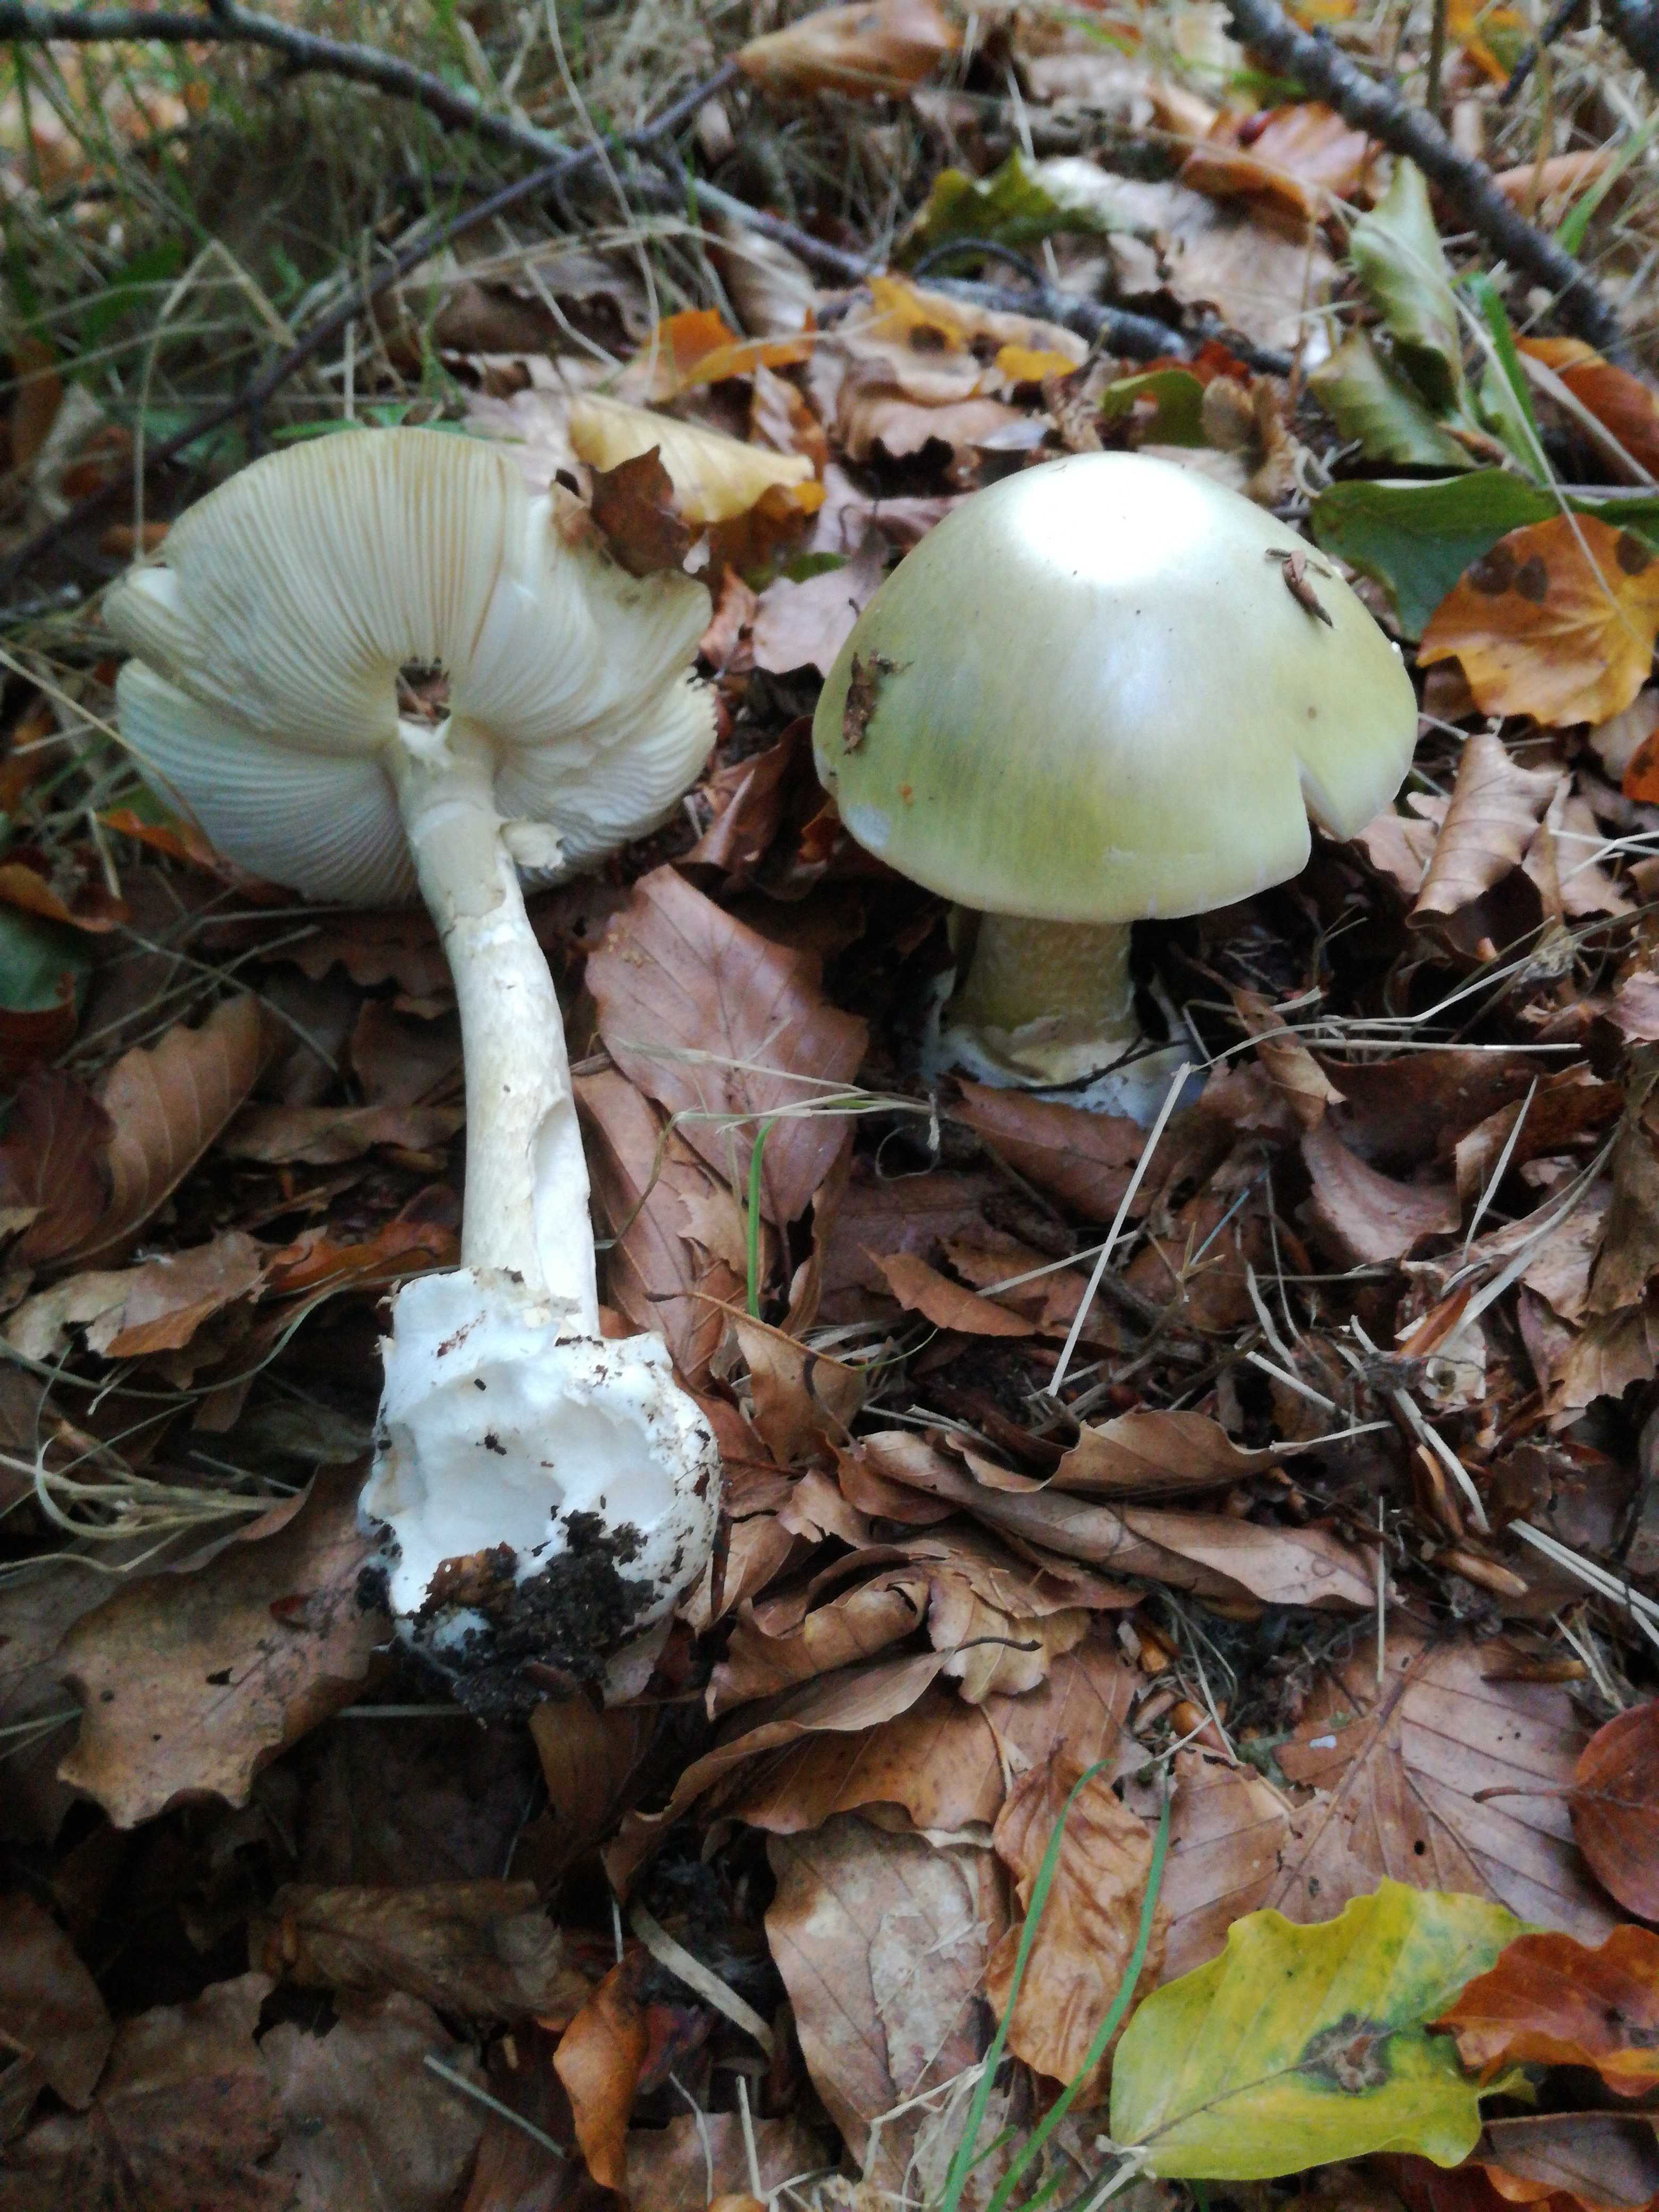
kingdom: Fungi
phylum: Basidiomycota
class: Agaricomycetes
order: Agaricales
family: Amanitaceae
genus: Amanita
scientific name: Amanita phalloides
